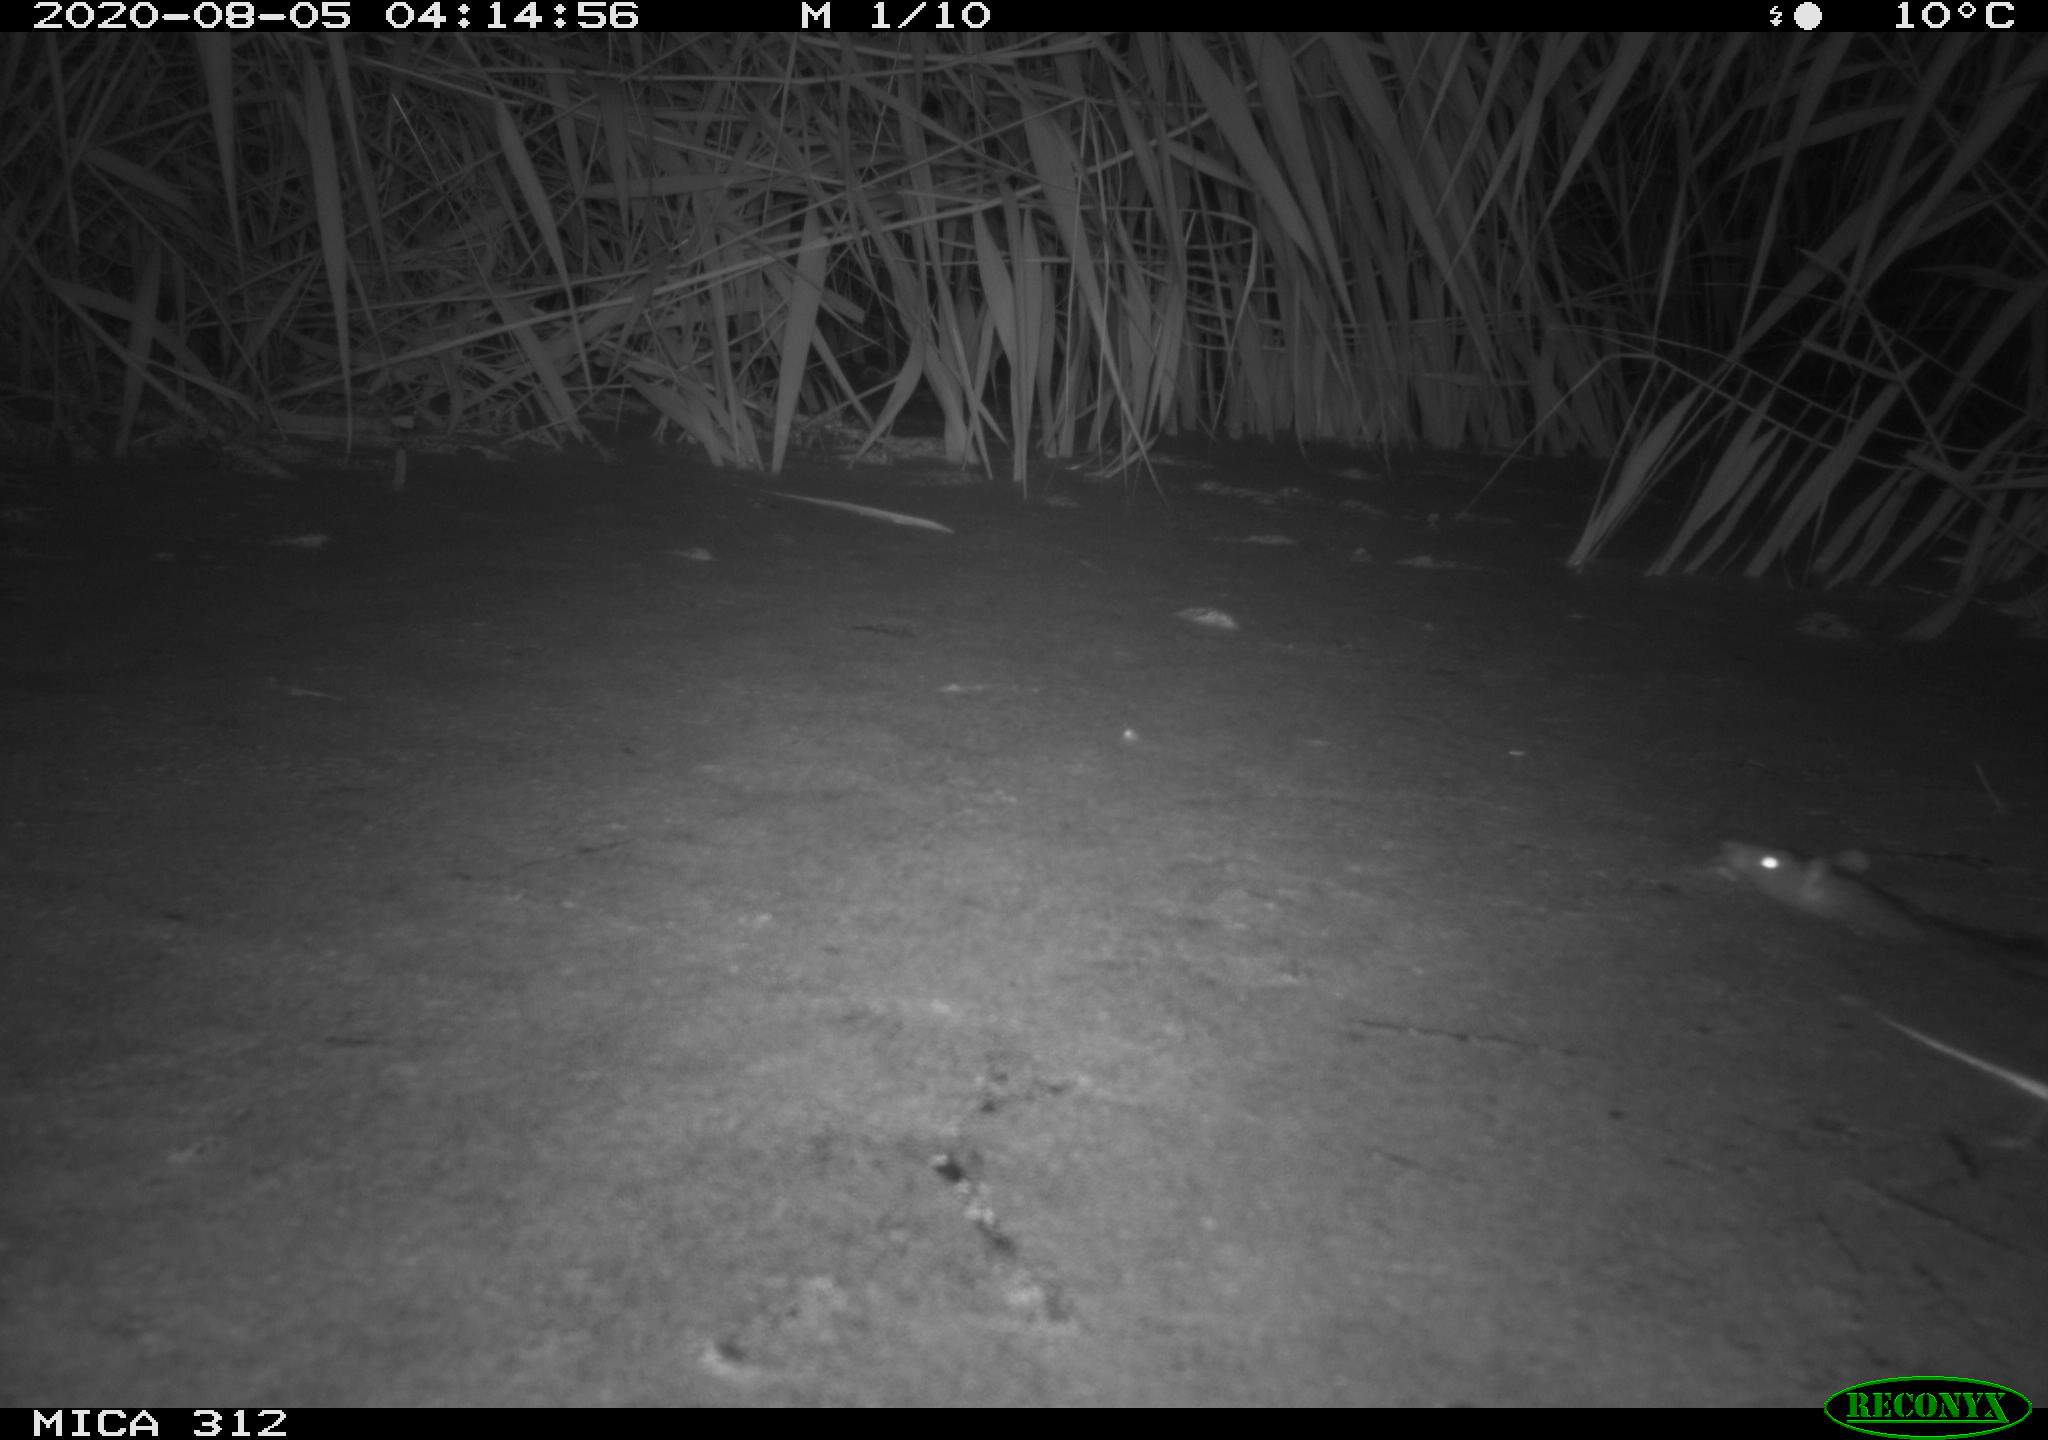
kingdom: Animalia
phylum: Chordata
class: Mammalia
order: Rodentia
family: Cricetidae
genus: Ondatra
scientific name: Ondatra zibethicus
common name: Muskrat
